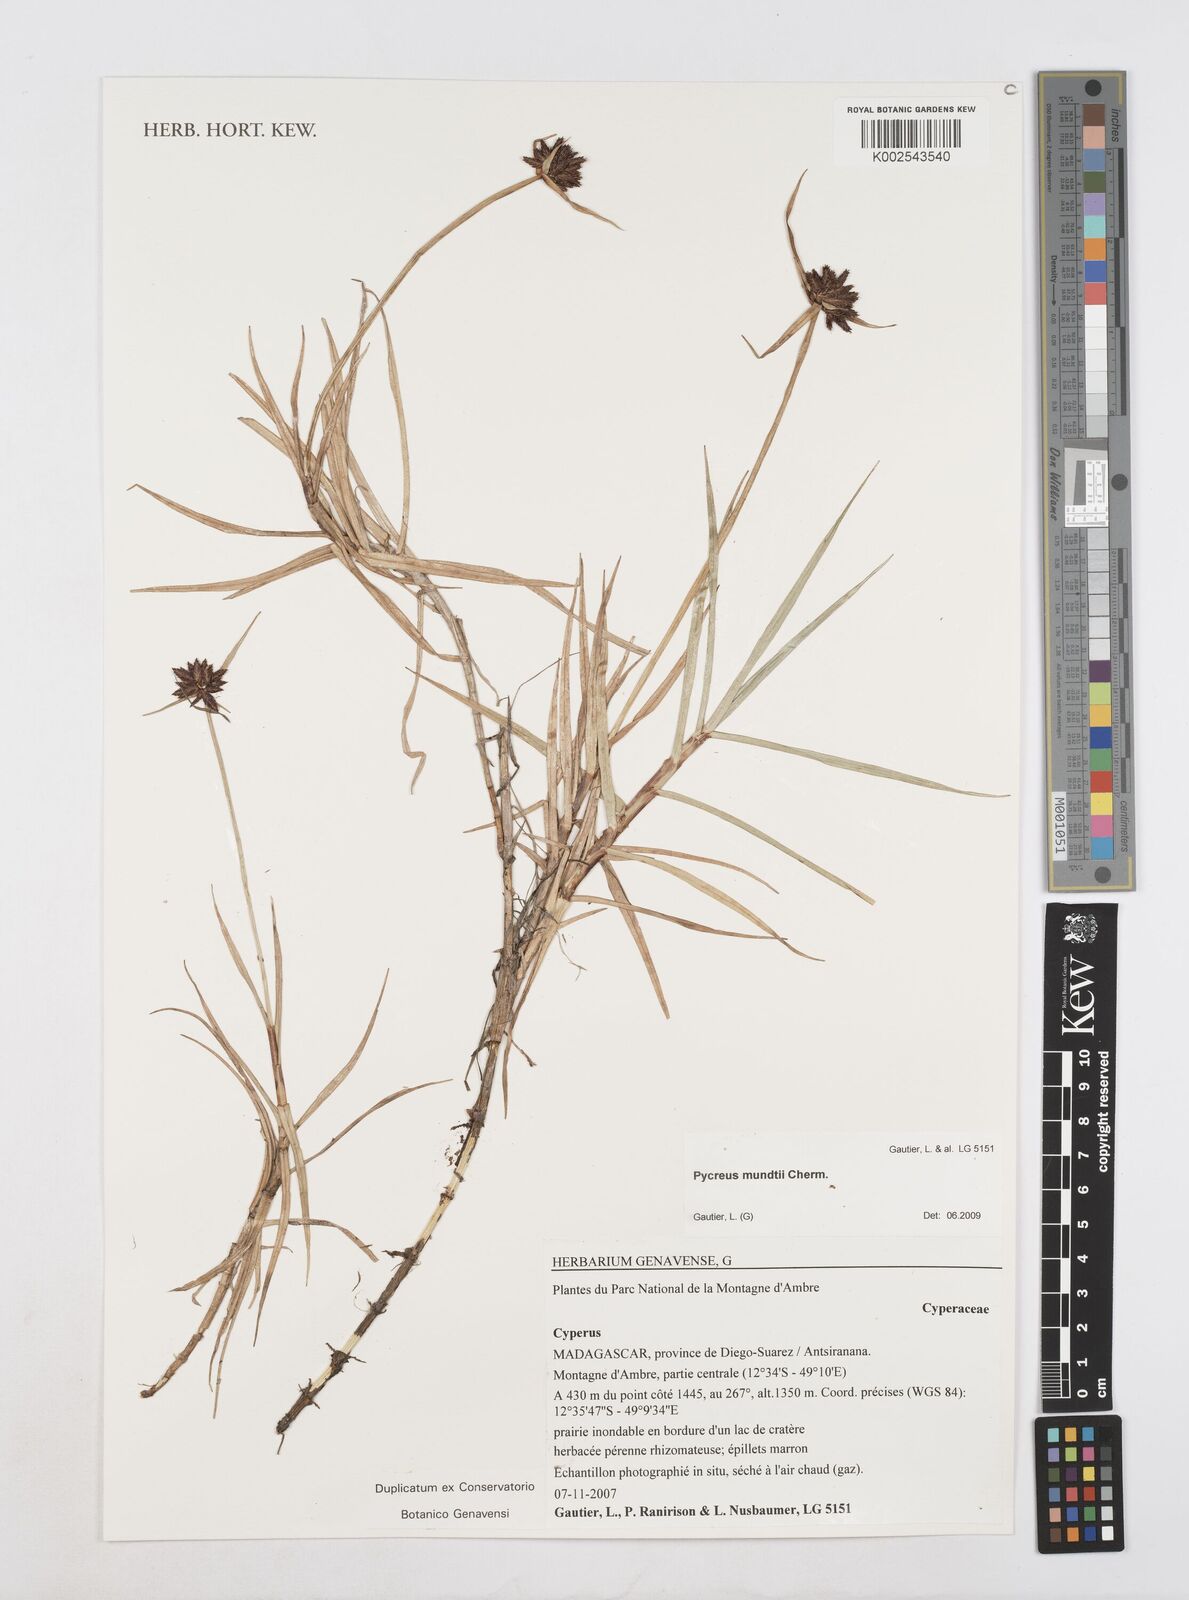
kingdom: Plantae
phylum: Tracheophyta
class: Liliopsida
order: Poales
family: Cyperaceae
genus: Cyperus
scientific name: Cyperus mundii
